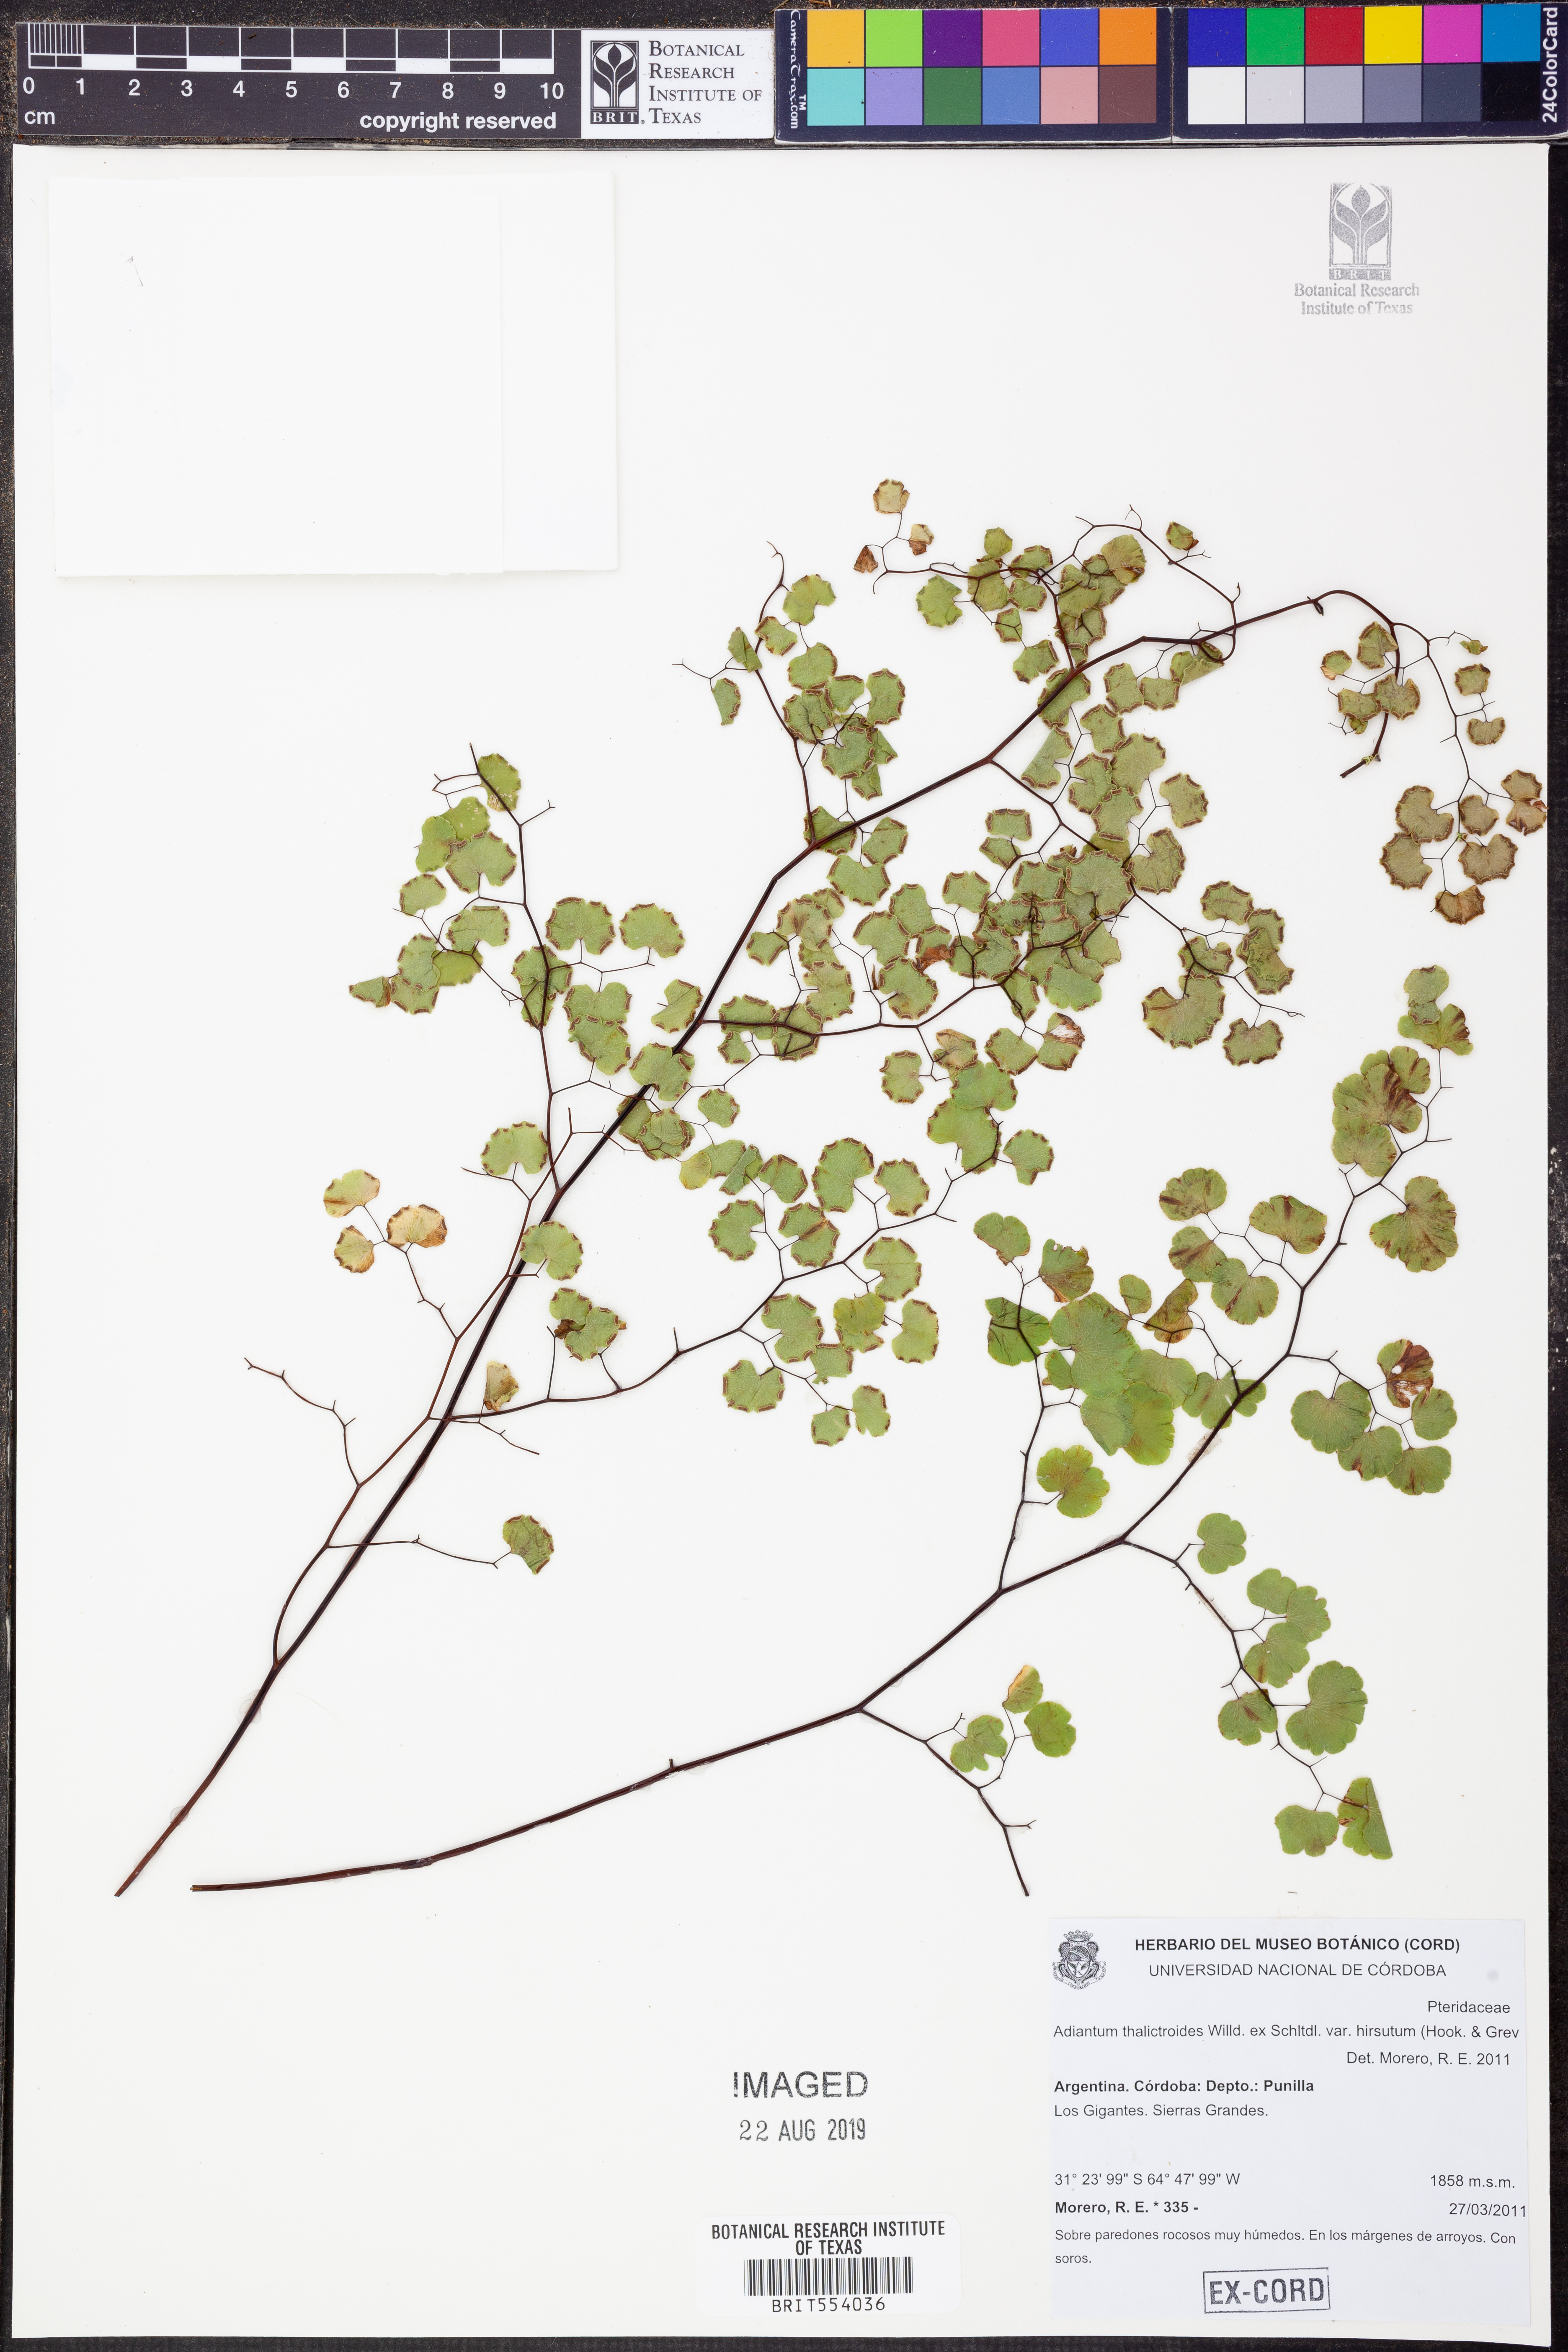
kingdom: Plantae
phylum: Tracheophyta
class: Polypodiopsida
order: Polypodiales
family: Pteridaceae
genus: Adiantum
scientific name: Adiantum thalictroides
